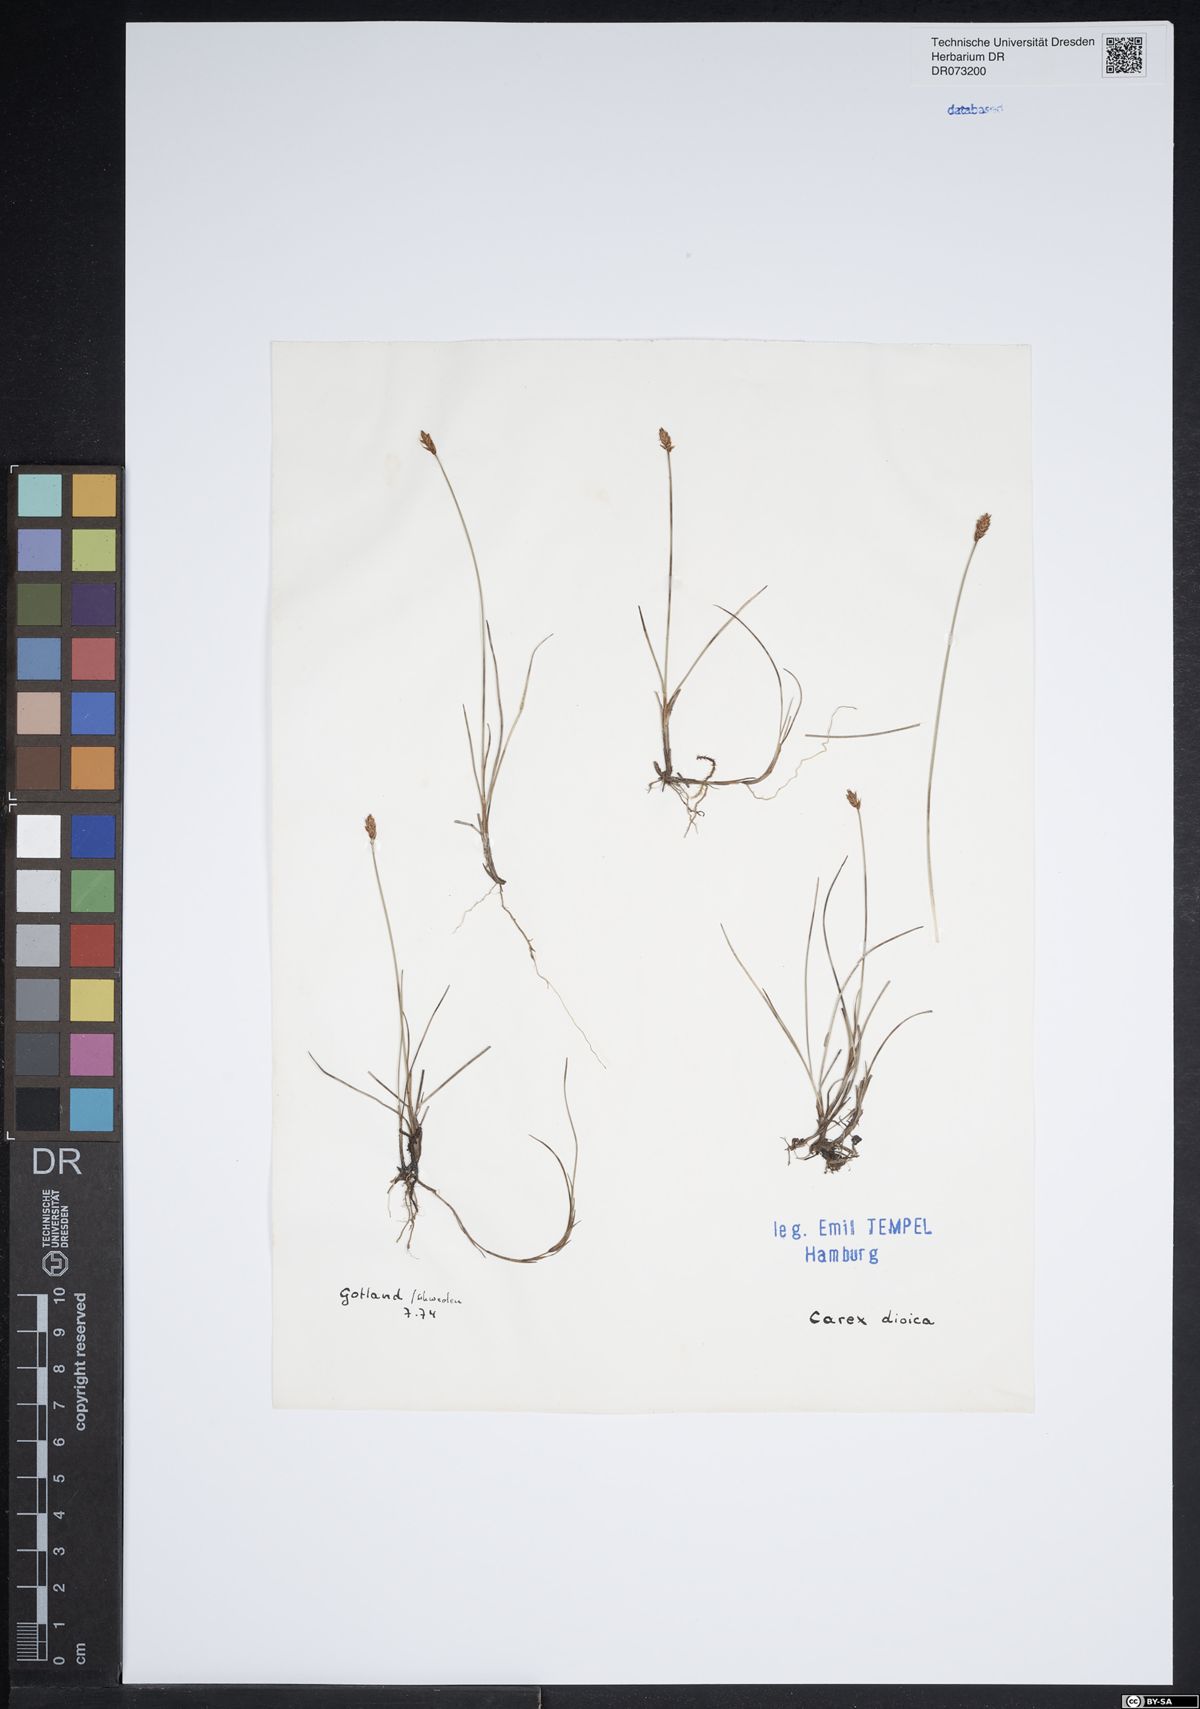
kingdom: Plantae
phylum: Tracheophyta
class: Liliopsida
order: Poales
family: Cyperaceae
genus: Carex
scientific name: Carex dioica
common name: Dioecious sedge
